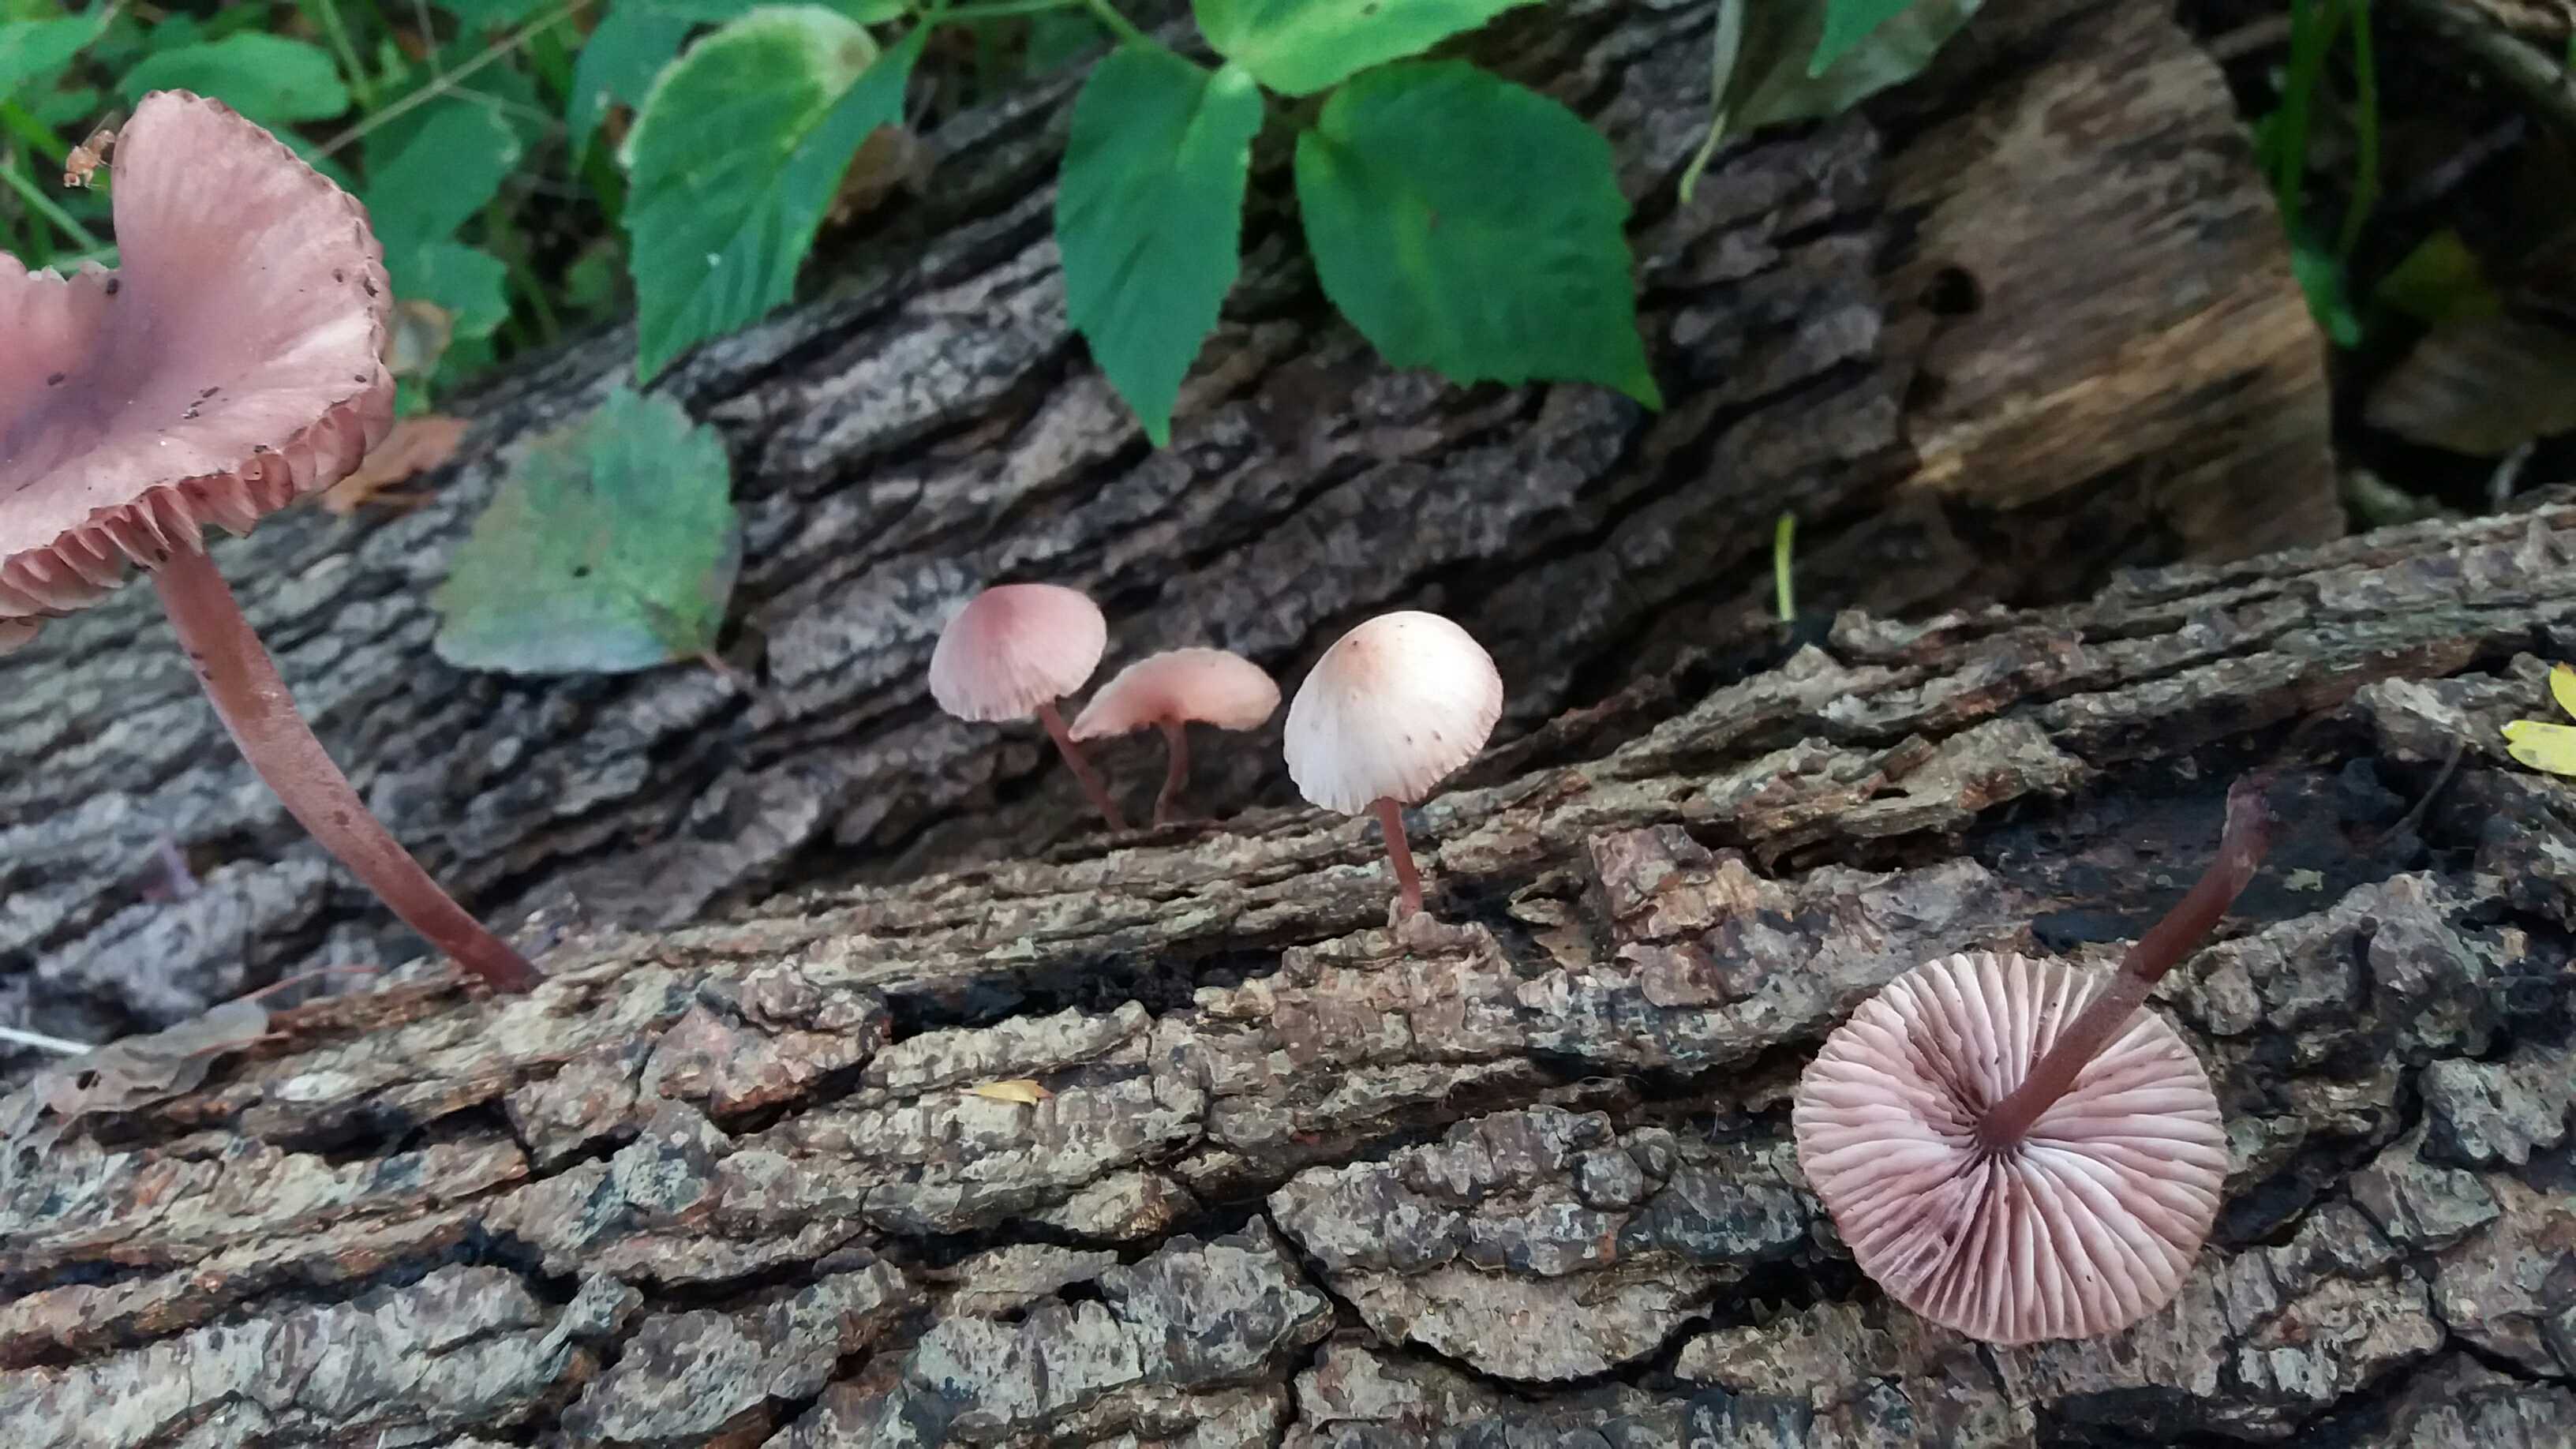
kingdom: Fungi
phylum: Basidiomycota
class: Agaricomycetes
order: Agaricales
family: Mycenaceae
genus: Mycena
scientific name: Mycena haematopus
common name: blødende huesvamp
